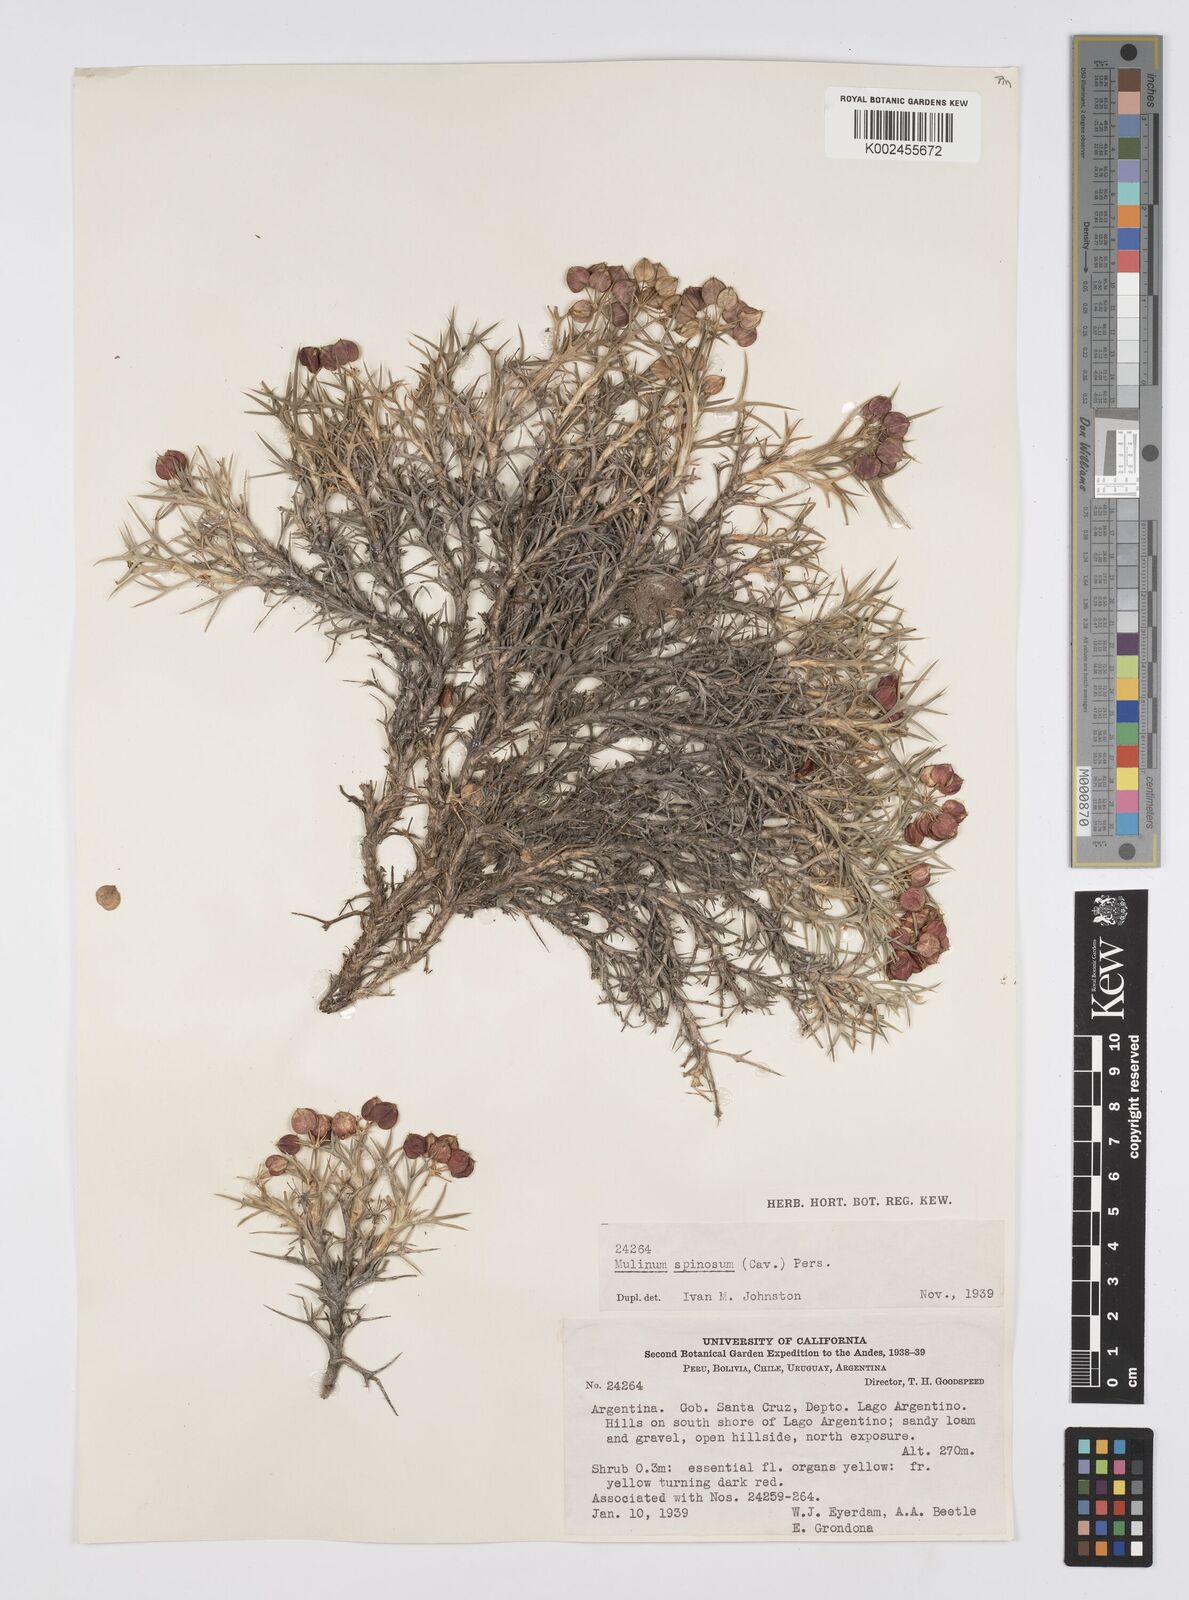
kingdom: Plantae
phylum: Tracheophyta
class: Magnoliopsida
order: Apiales
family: Apiaceae
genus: Azorella
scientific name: Azorella prolifera
